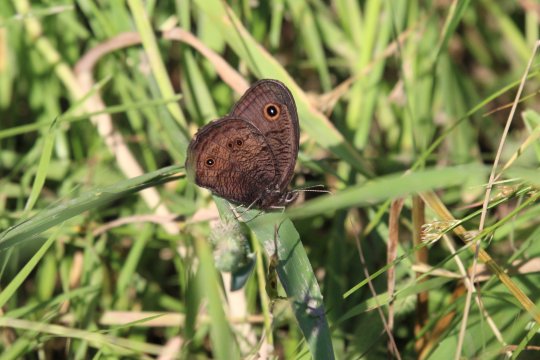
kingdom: Animalia
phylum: Arthropoda
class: Insecta
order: Lepidoptera
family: Nymphalidae
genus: Cercyonis
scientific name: Cercyonis pegala
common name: Common Wood-Nymph
